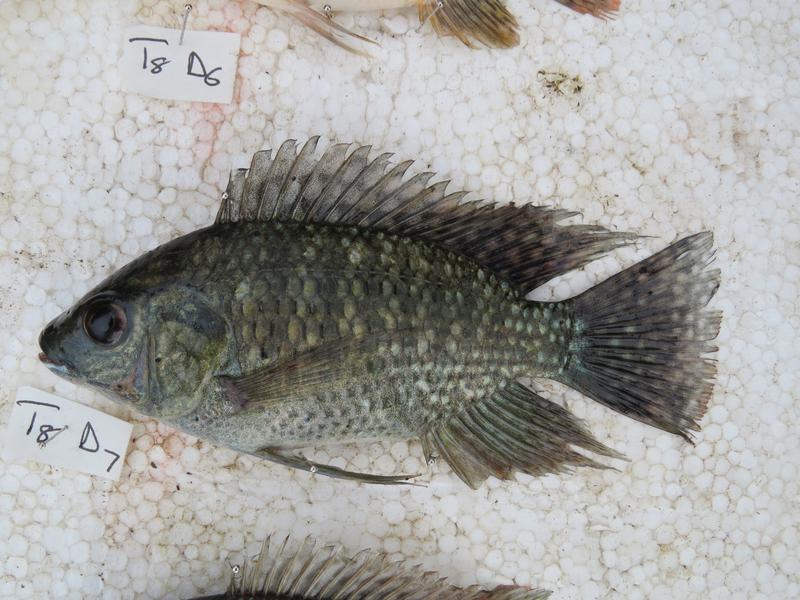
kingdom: Animalia
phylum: Chordata
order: Perciformes
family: Cichlidae
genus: Oreochromis
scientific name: Oreochromis leucostictus
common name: Blue spotted tilapia
